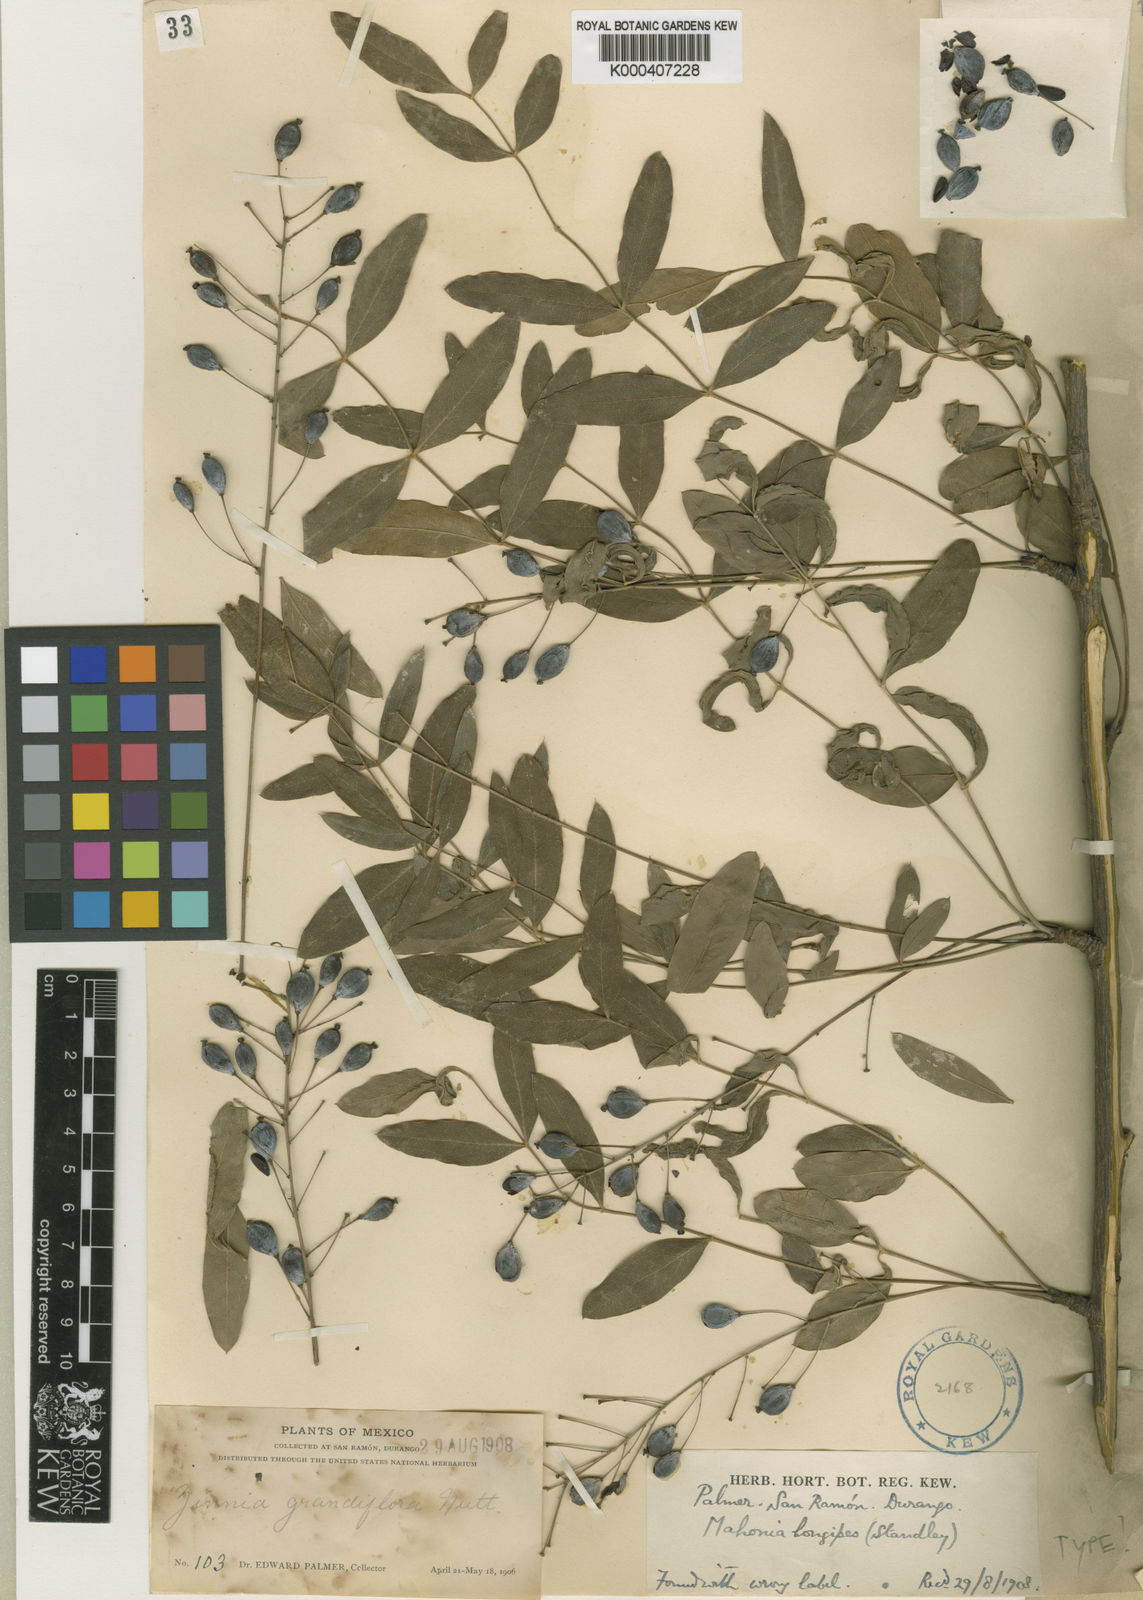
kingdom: Plantae
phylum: Tracheophyta
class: Magnoliopsida
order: Ranunculales
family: Berberidaceae
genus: Alloberberis
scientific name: Alloberberis longipes
